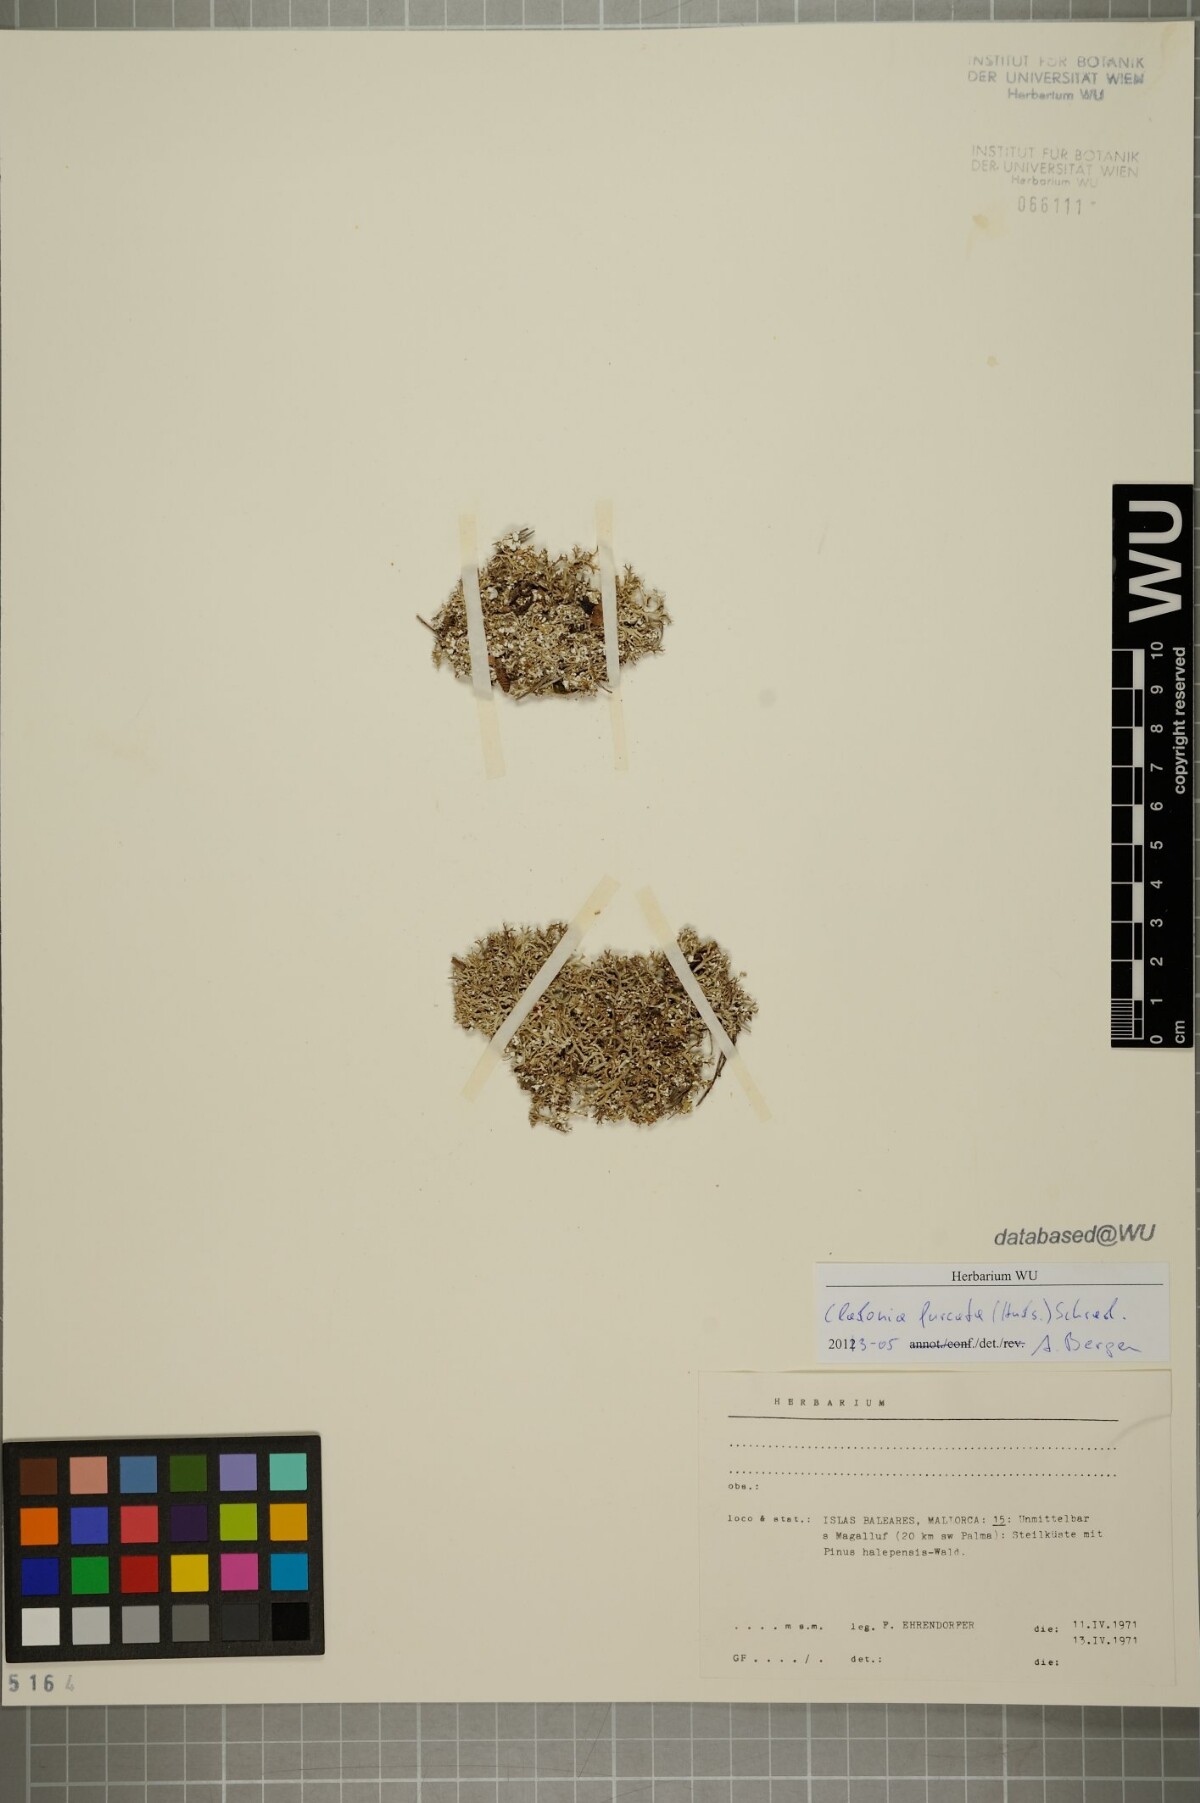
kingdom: Fungi
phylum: Ascomycota
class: Lecanoromycetes
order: Lecanorales
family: Cladoniaceae
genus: Cladonia
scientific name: Cladonia furcata
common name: Many-forked cladonia
